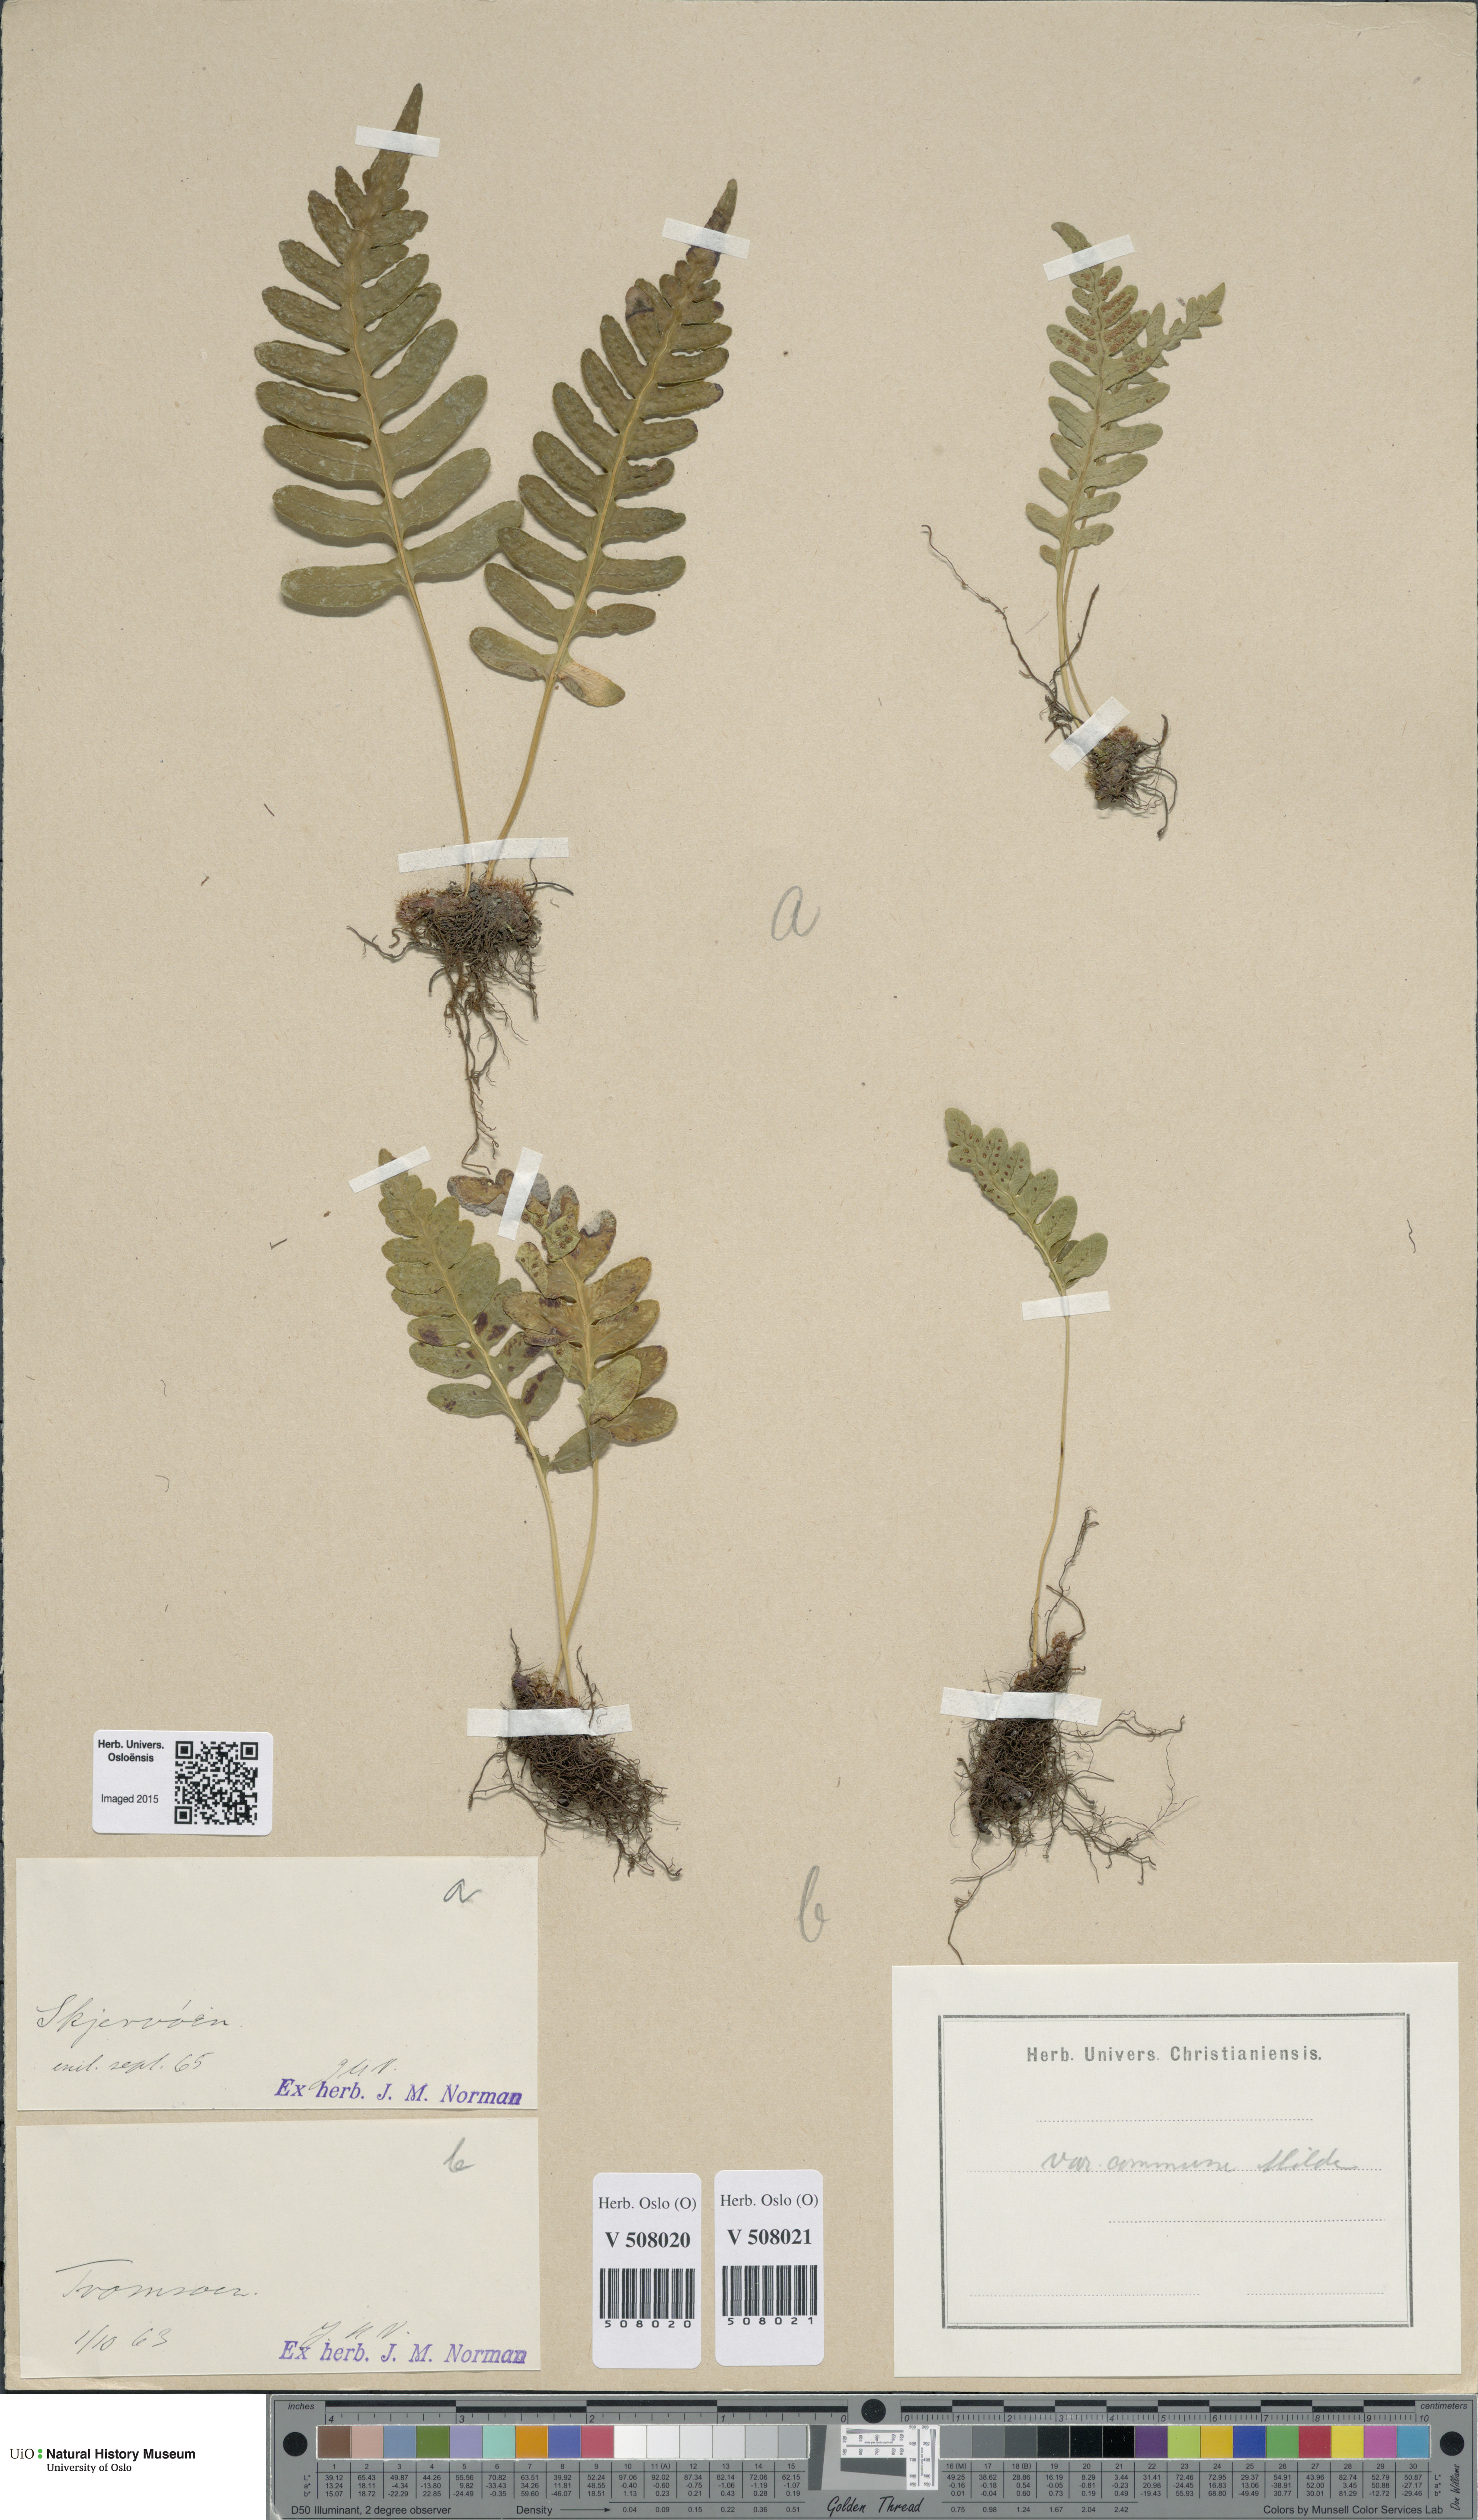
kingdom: Plantae
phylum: Tracheophyta
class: Polypodiopsida
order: Polypodiales
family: Polypodiaceae
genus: Polypodium
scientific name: Polypodium vulgare
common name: Common polypody
